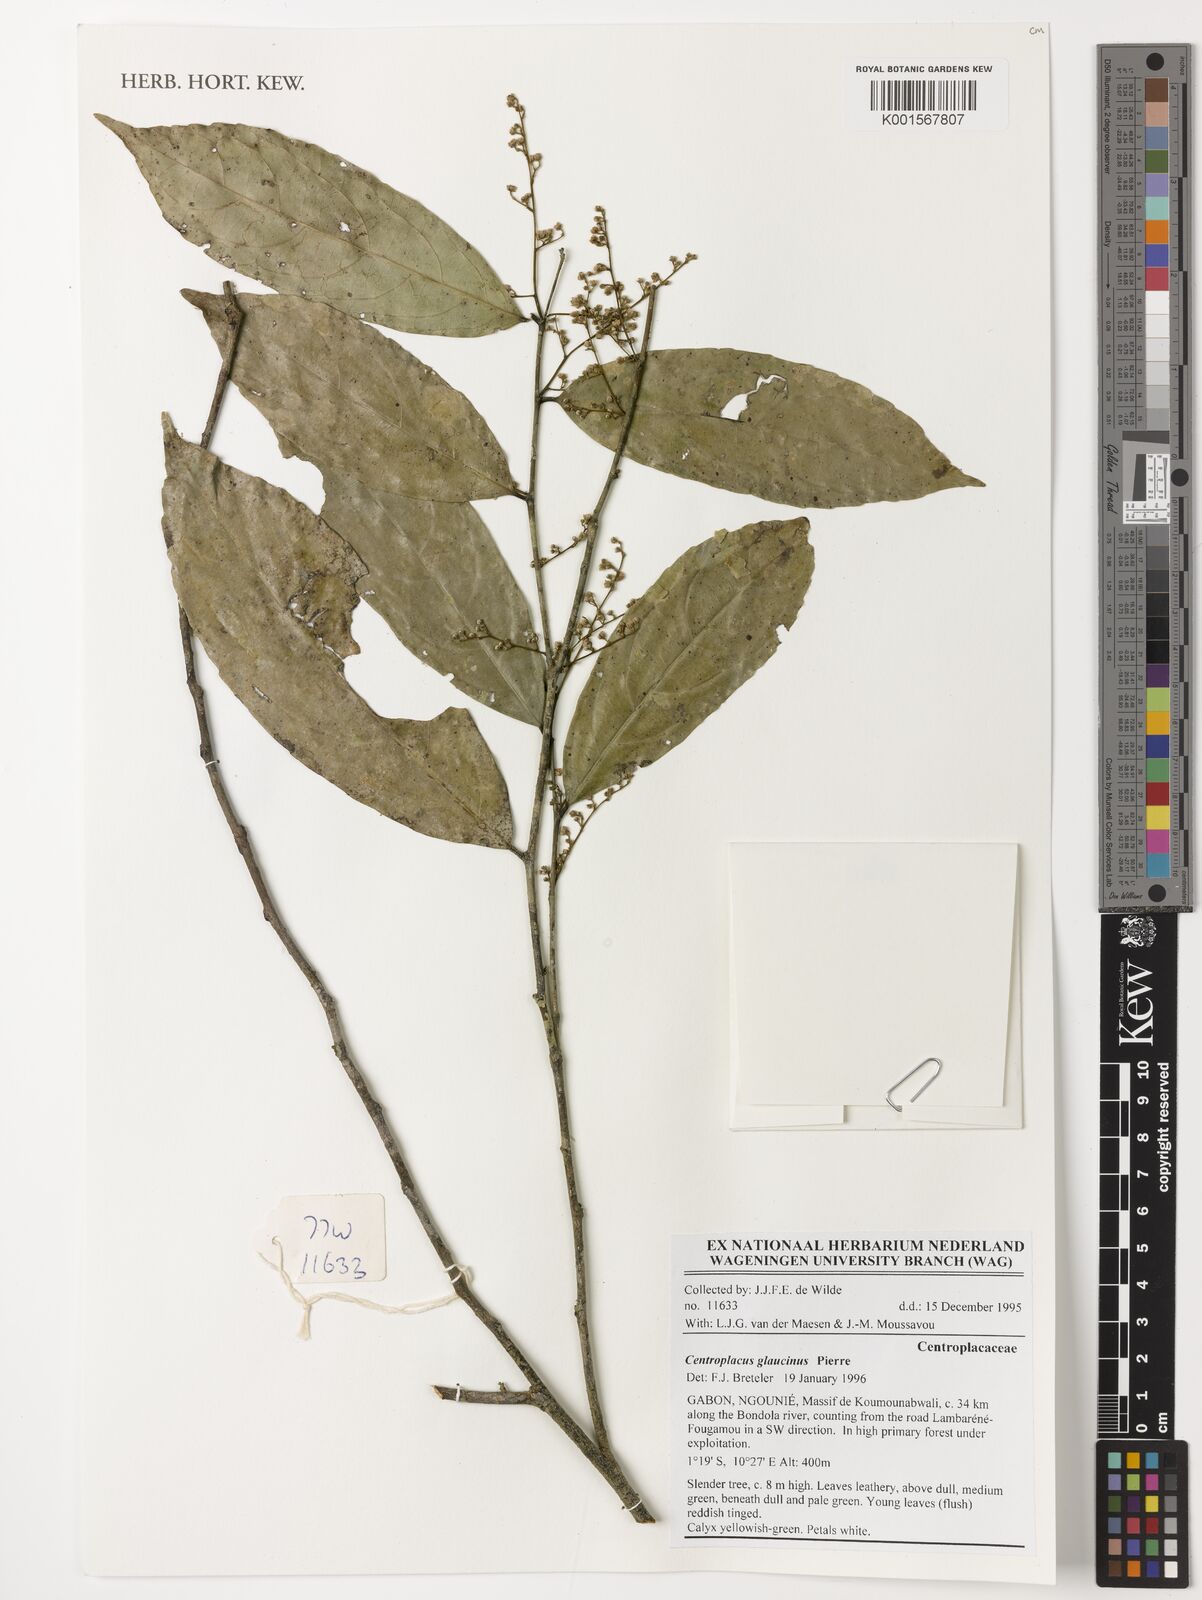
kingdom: Plantae
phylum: Tracheophyta
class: Magnoliopsida
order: Malpighiales
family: Centroplacaceae
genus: Centroplacus
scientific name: Centroplacus glaucinus
